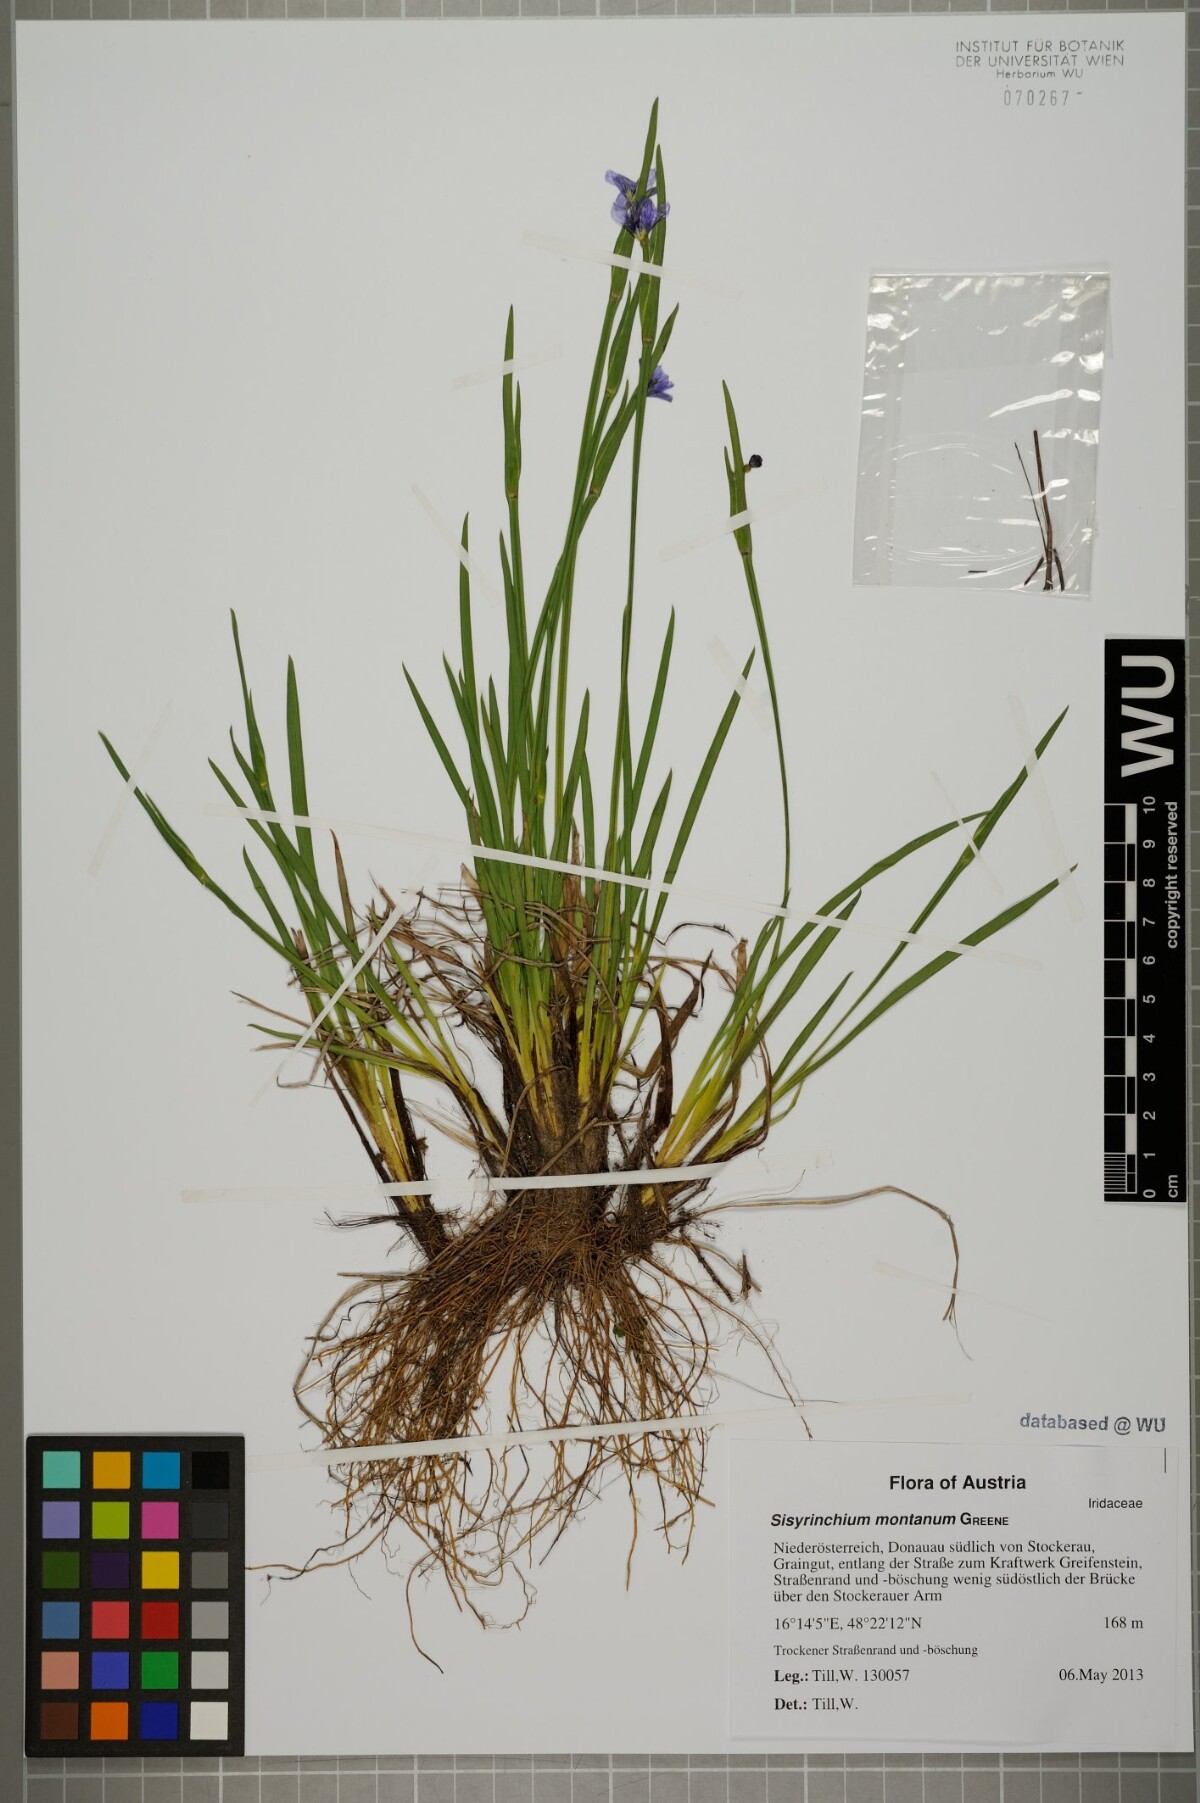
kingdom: Plantae
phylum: Tracheophyta
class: Liliopsida
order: Asparagales
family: Iridaceae
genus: Sisyrinchium
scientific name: Sisyrinchium montanum
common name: American blue-eyed-grass
